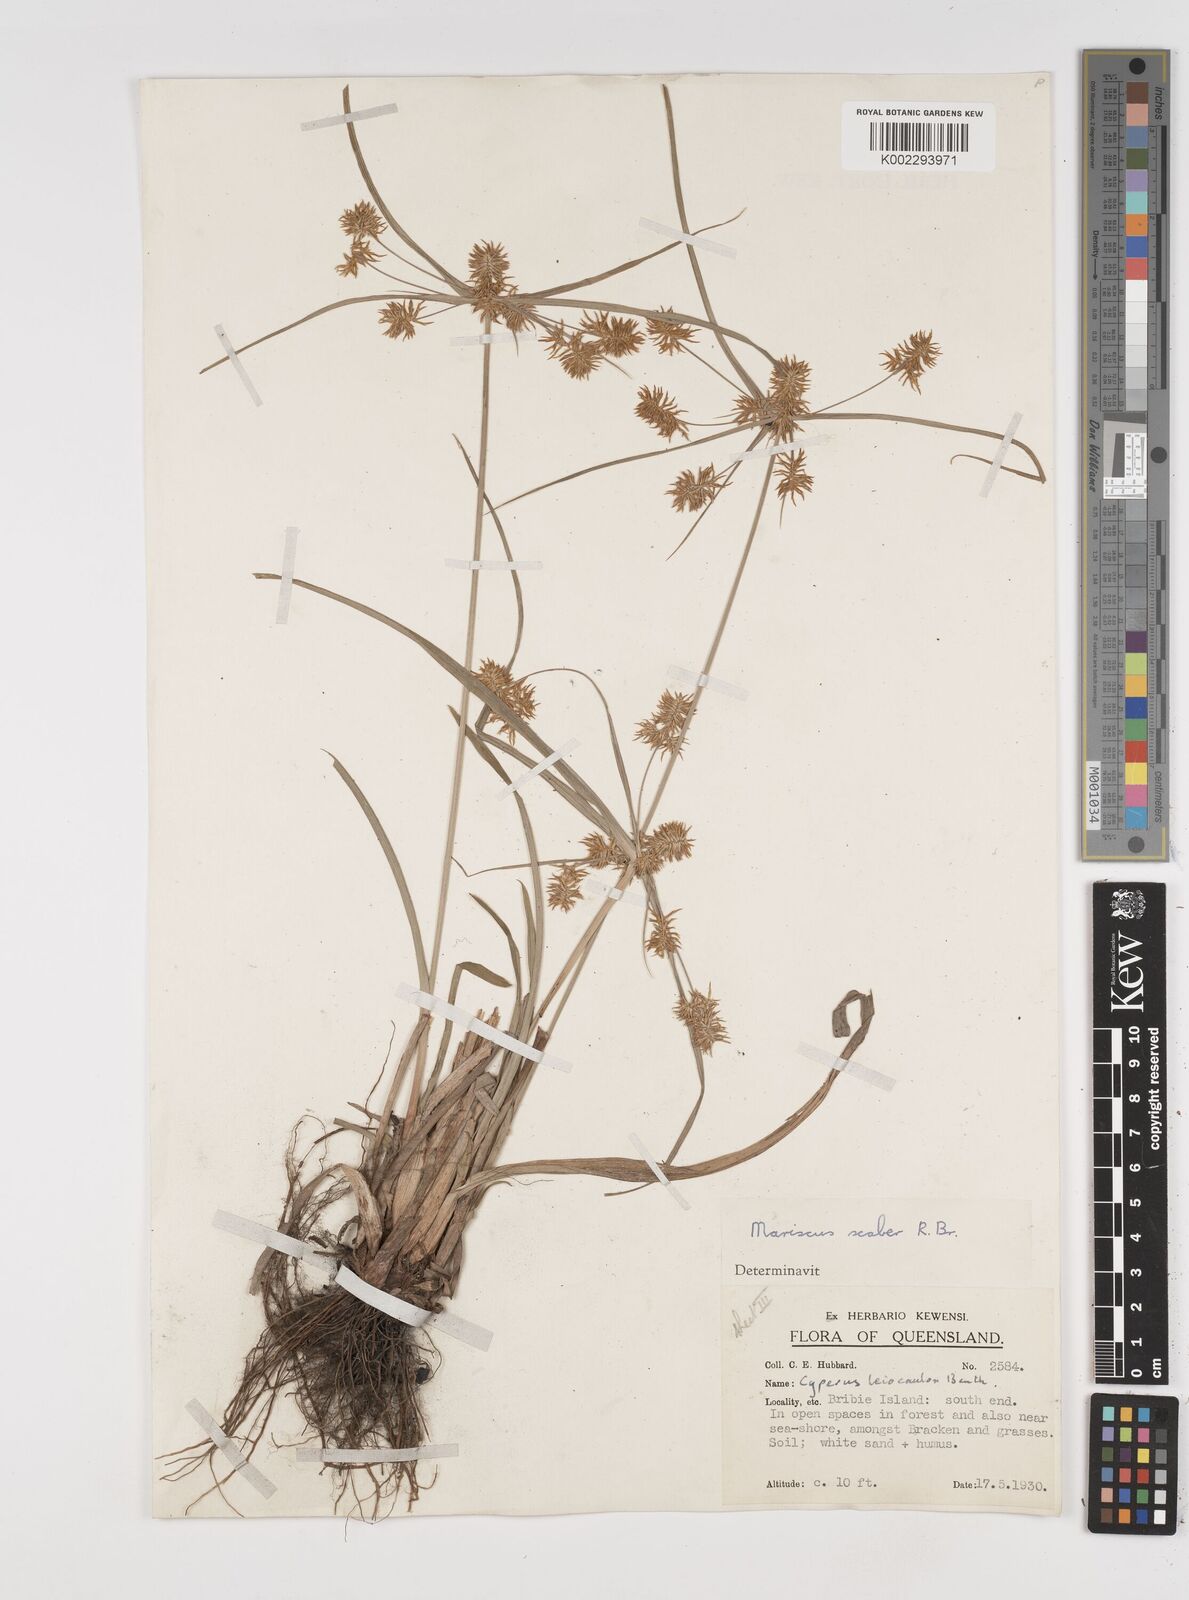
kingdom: Plantae
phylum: Tracheophyta
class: Liliopsida
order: Poales
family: Cyperaceae
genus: Cyperus
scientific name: Cyperus scaber
